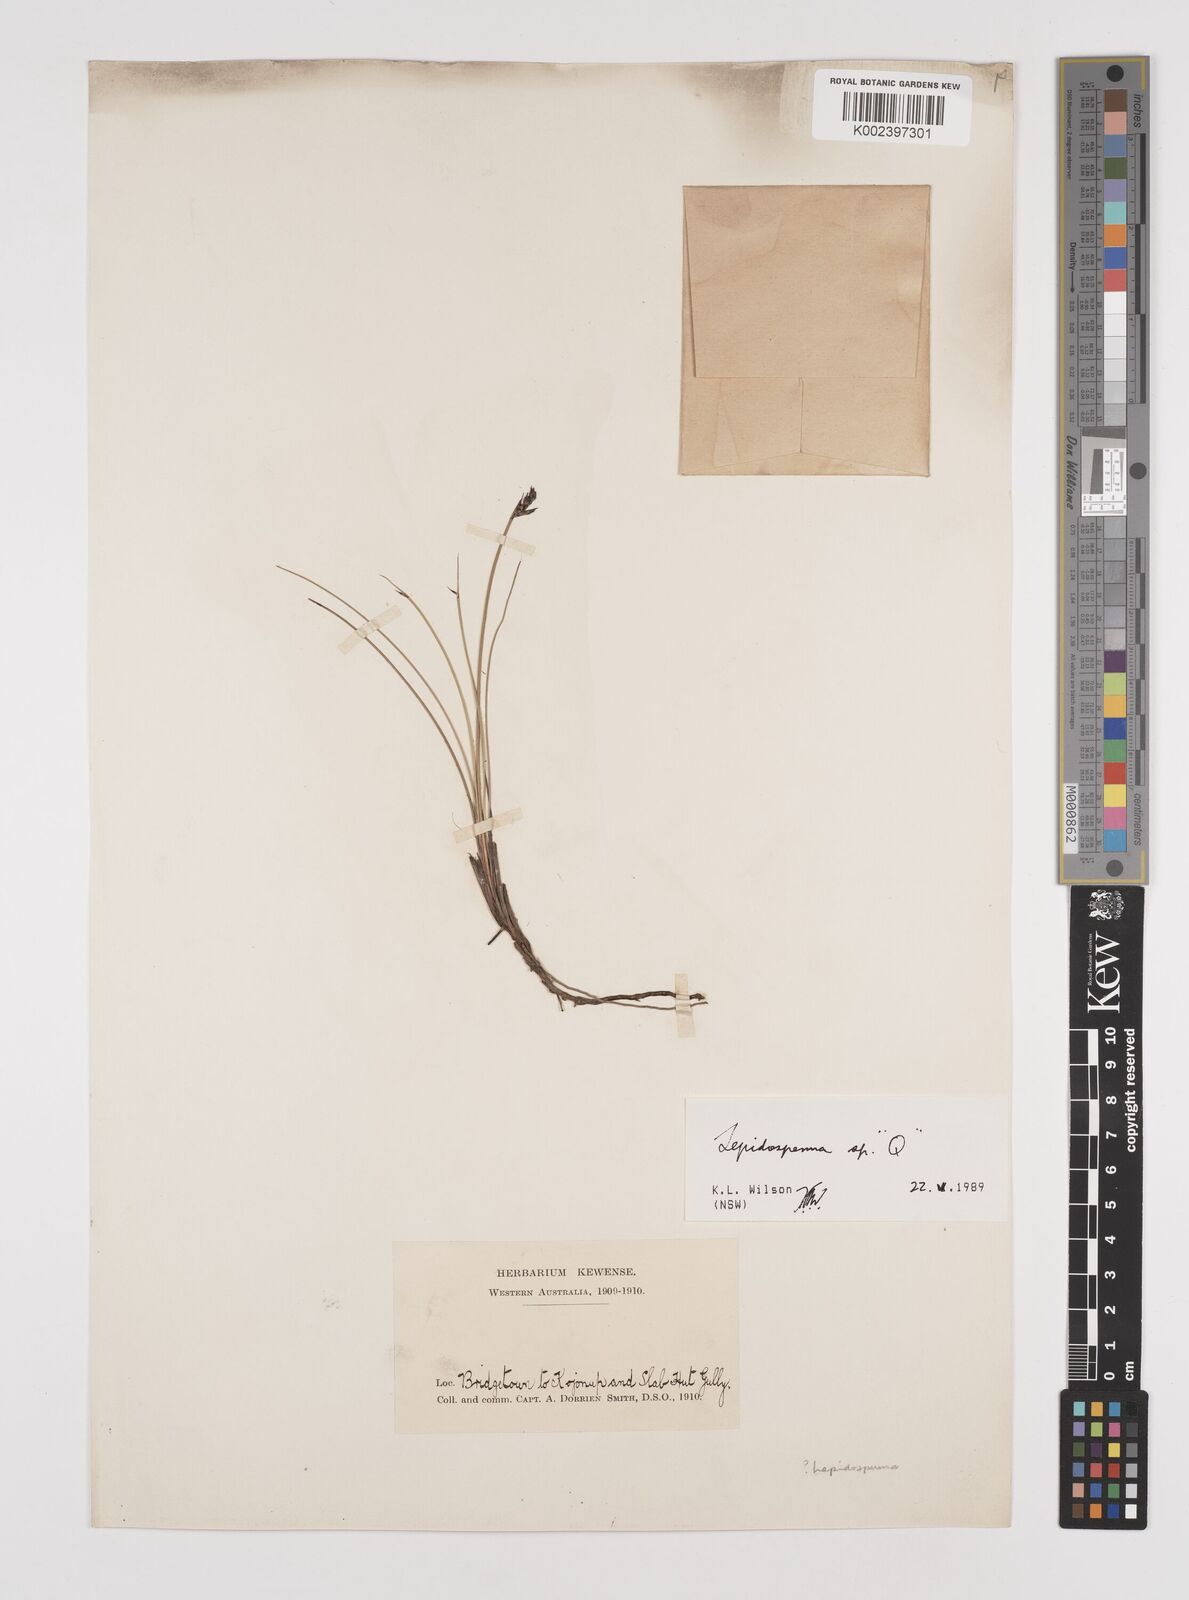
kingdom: Plantae
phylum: Tracheophyta
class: Liliopsida
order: Poales
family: Cyperaceae
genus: Lepidosperma
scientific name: Lepidosperma
